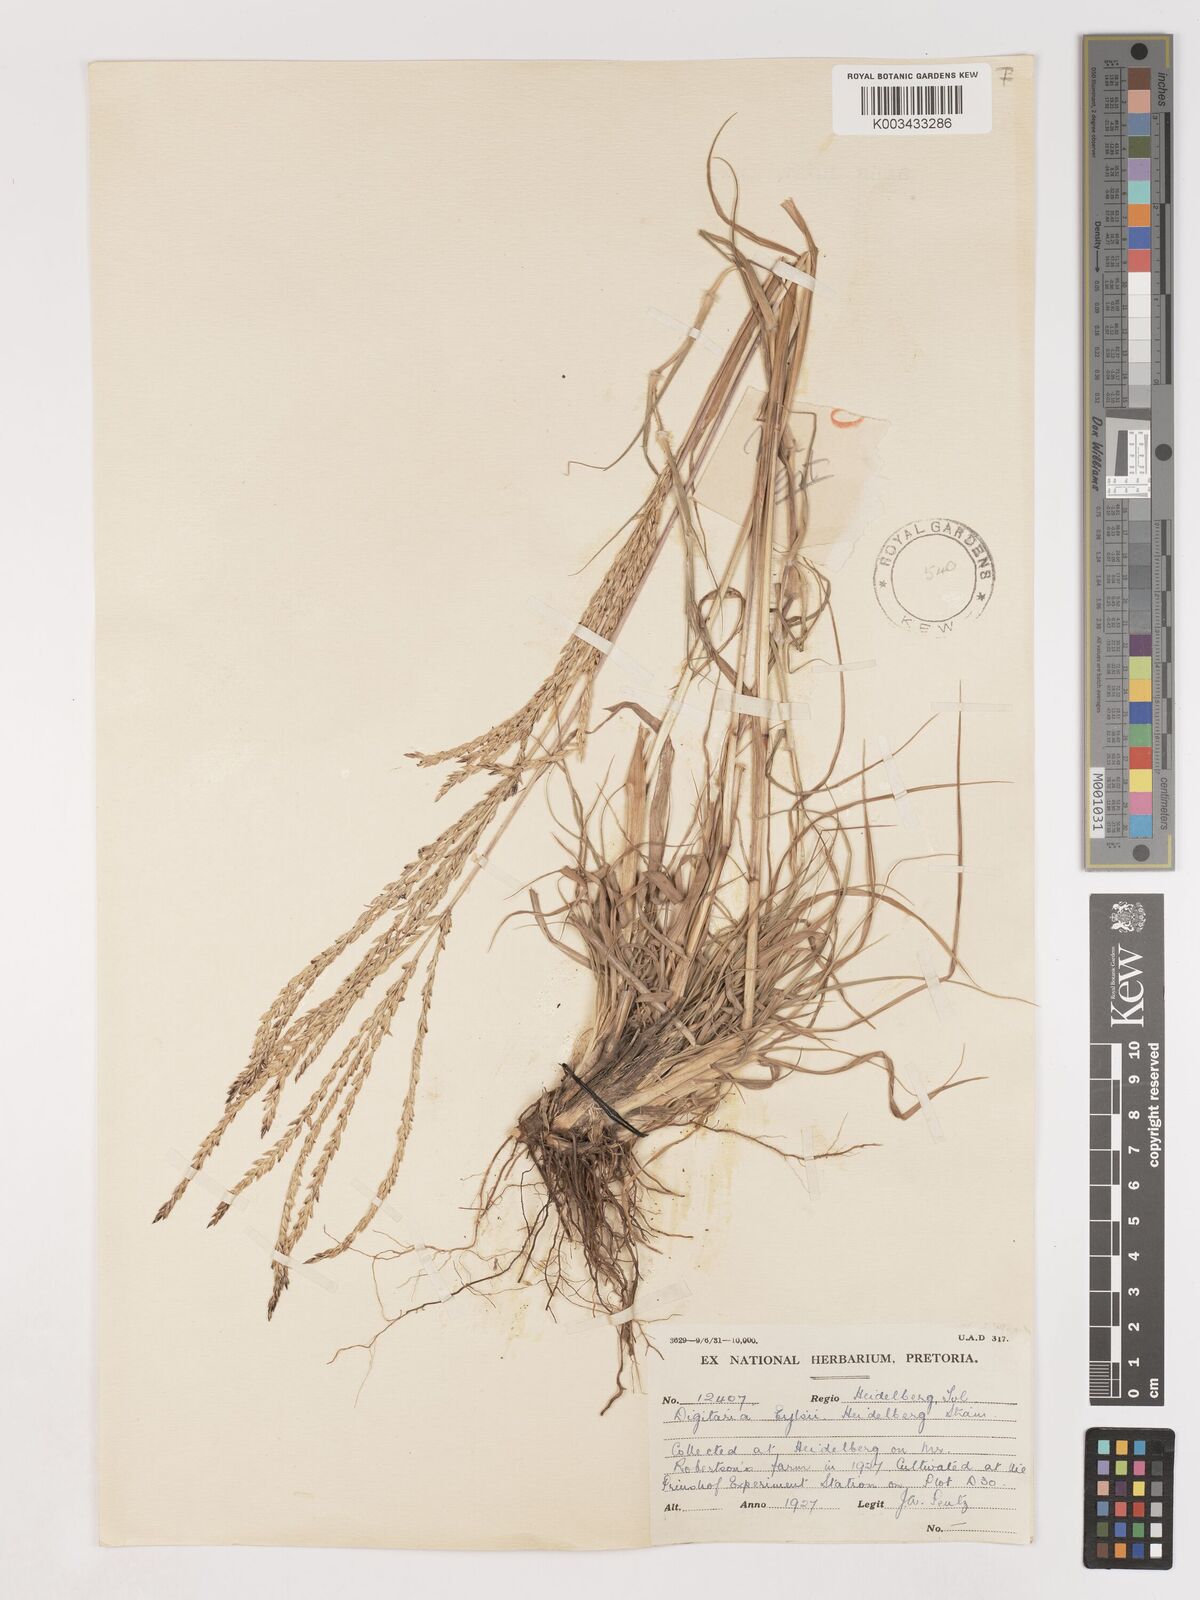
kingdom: Plantae
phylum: Tracheophyta
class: Liliopsida
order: Poales
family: Poaceae
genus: Digitaria
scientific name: Digitaria eriantha
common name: Digitgrass
